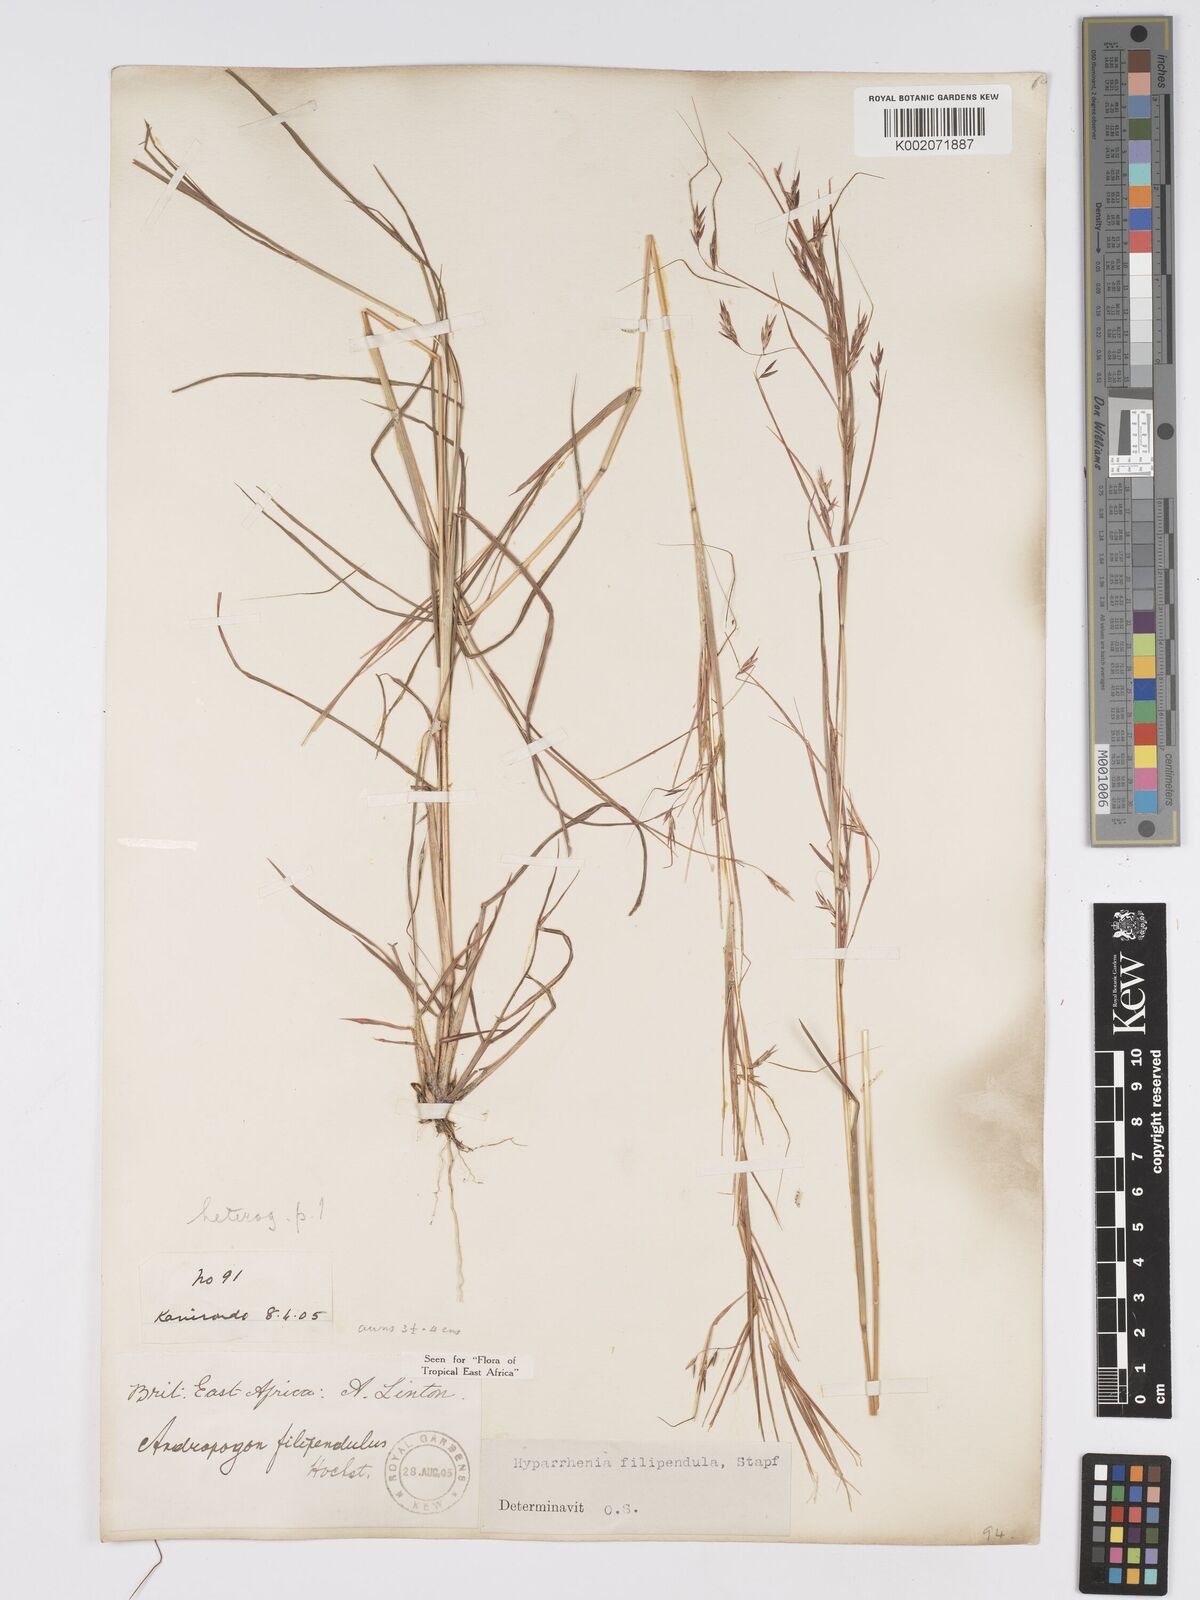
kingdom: Plantae
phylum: Tracheophyta
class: Liliopsida
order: Poales
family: Poaceae
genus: Hyparrhenia
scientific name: Hyparrhenia filipendula
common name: Tambookie grass
